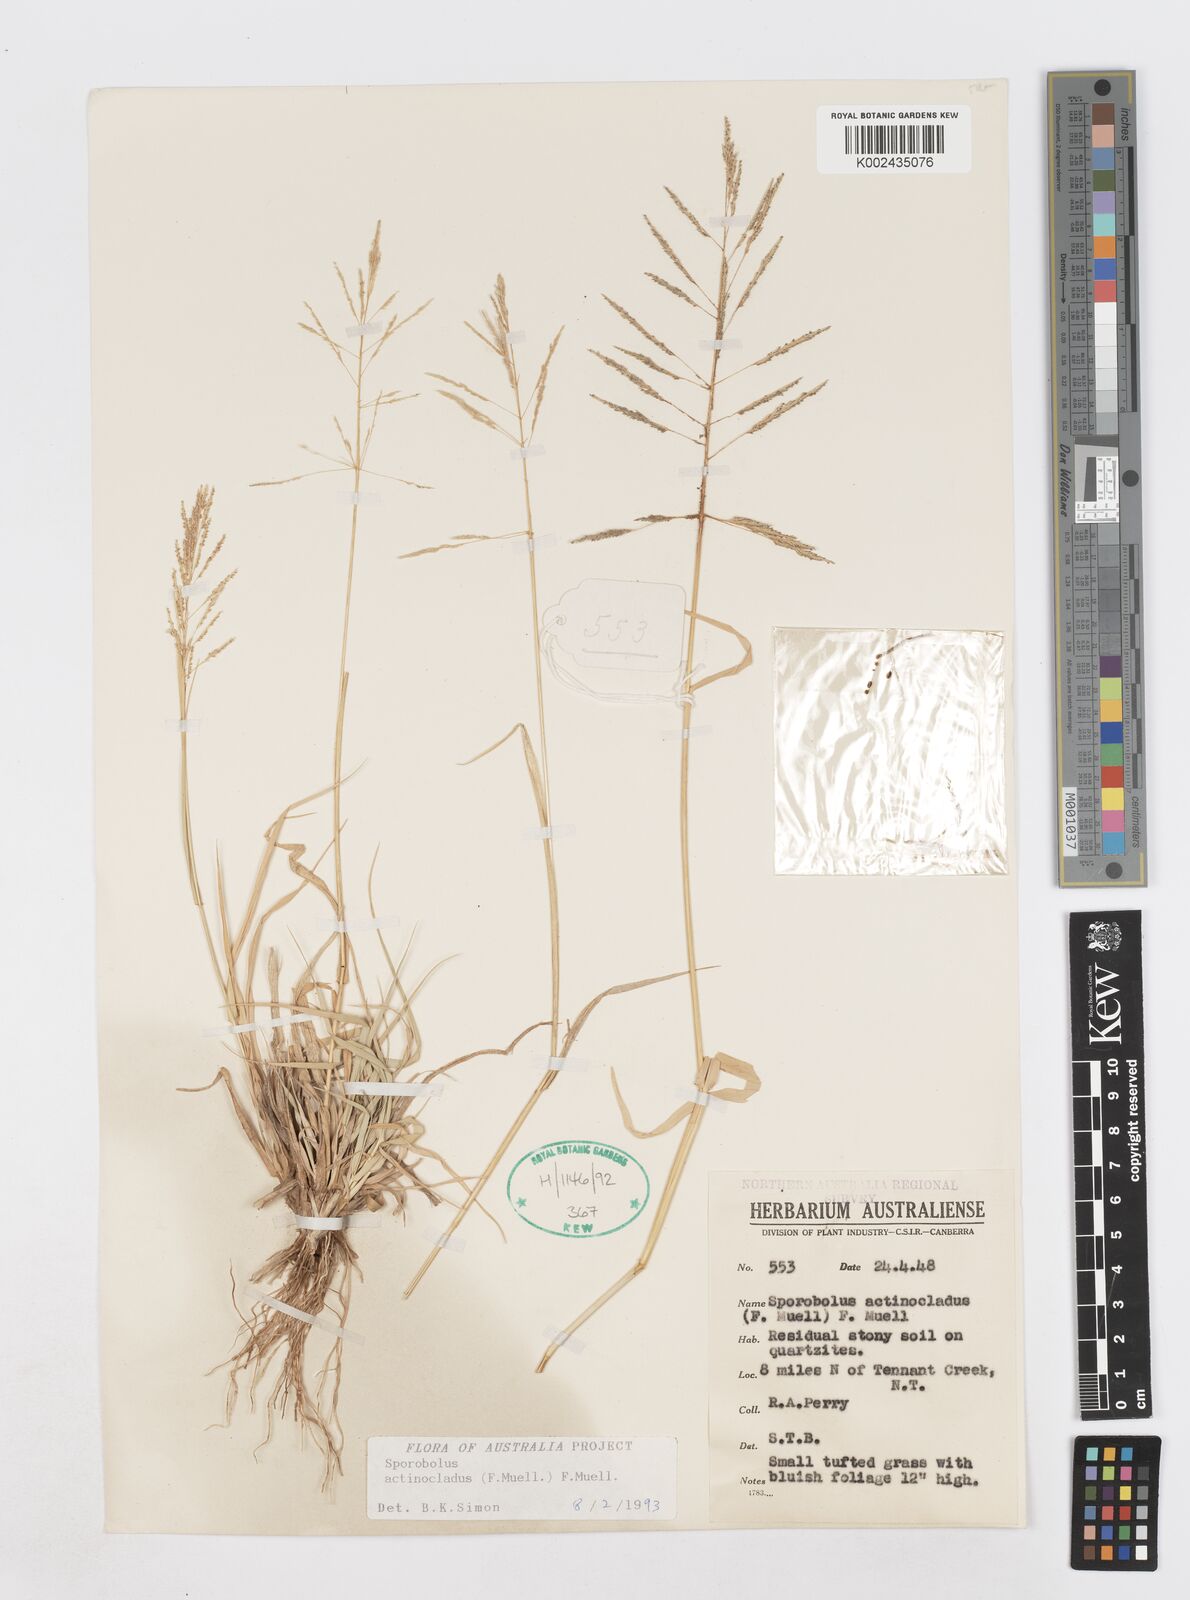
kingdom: Plantae
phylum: Tracheophyta
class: Liliopsida
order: Poales
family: Poaceae
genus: Sporobolus
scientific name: Sporobolus actinocladus
